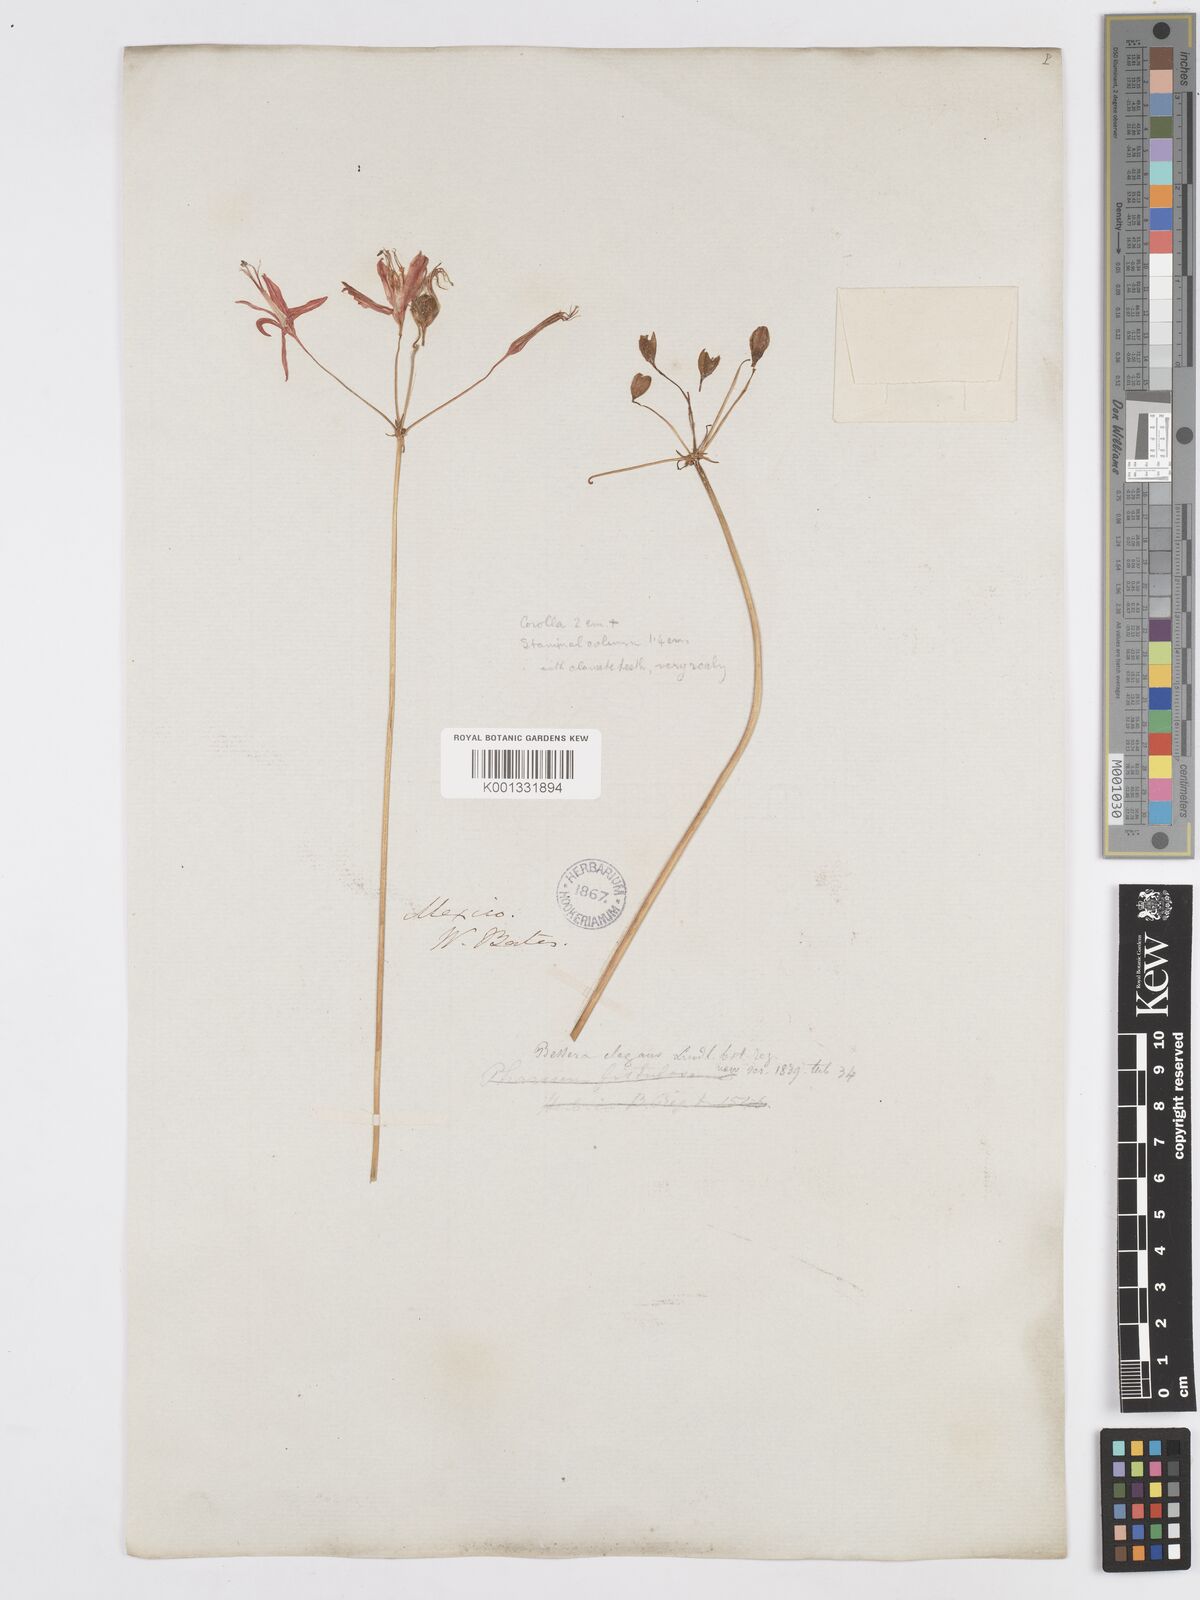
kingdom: Plantae
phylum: Tracheophyta
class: Liliopsida
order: Asparagales
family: Asparagaceae
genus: Bessera
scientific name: Bessera elegans
